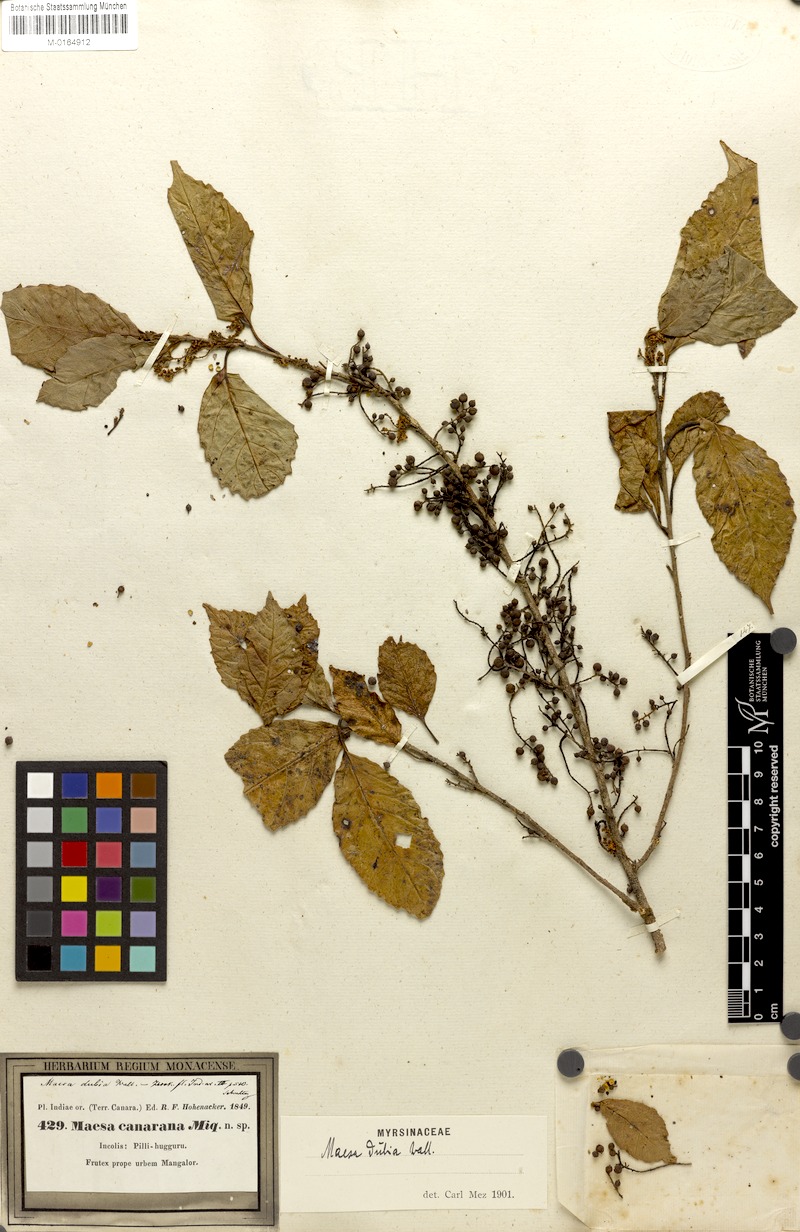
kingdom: Plantae
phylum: Tracheophyta
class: Magnoliopsida
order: Ericales
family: Primulaceae
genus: Maesa
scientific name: Maesa dubia
